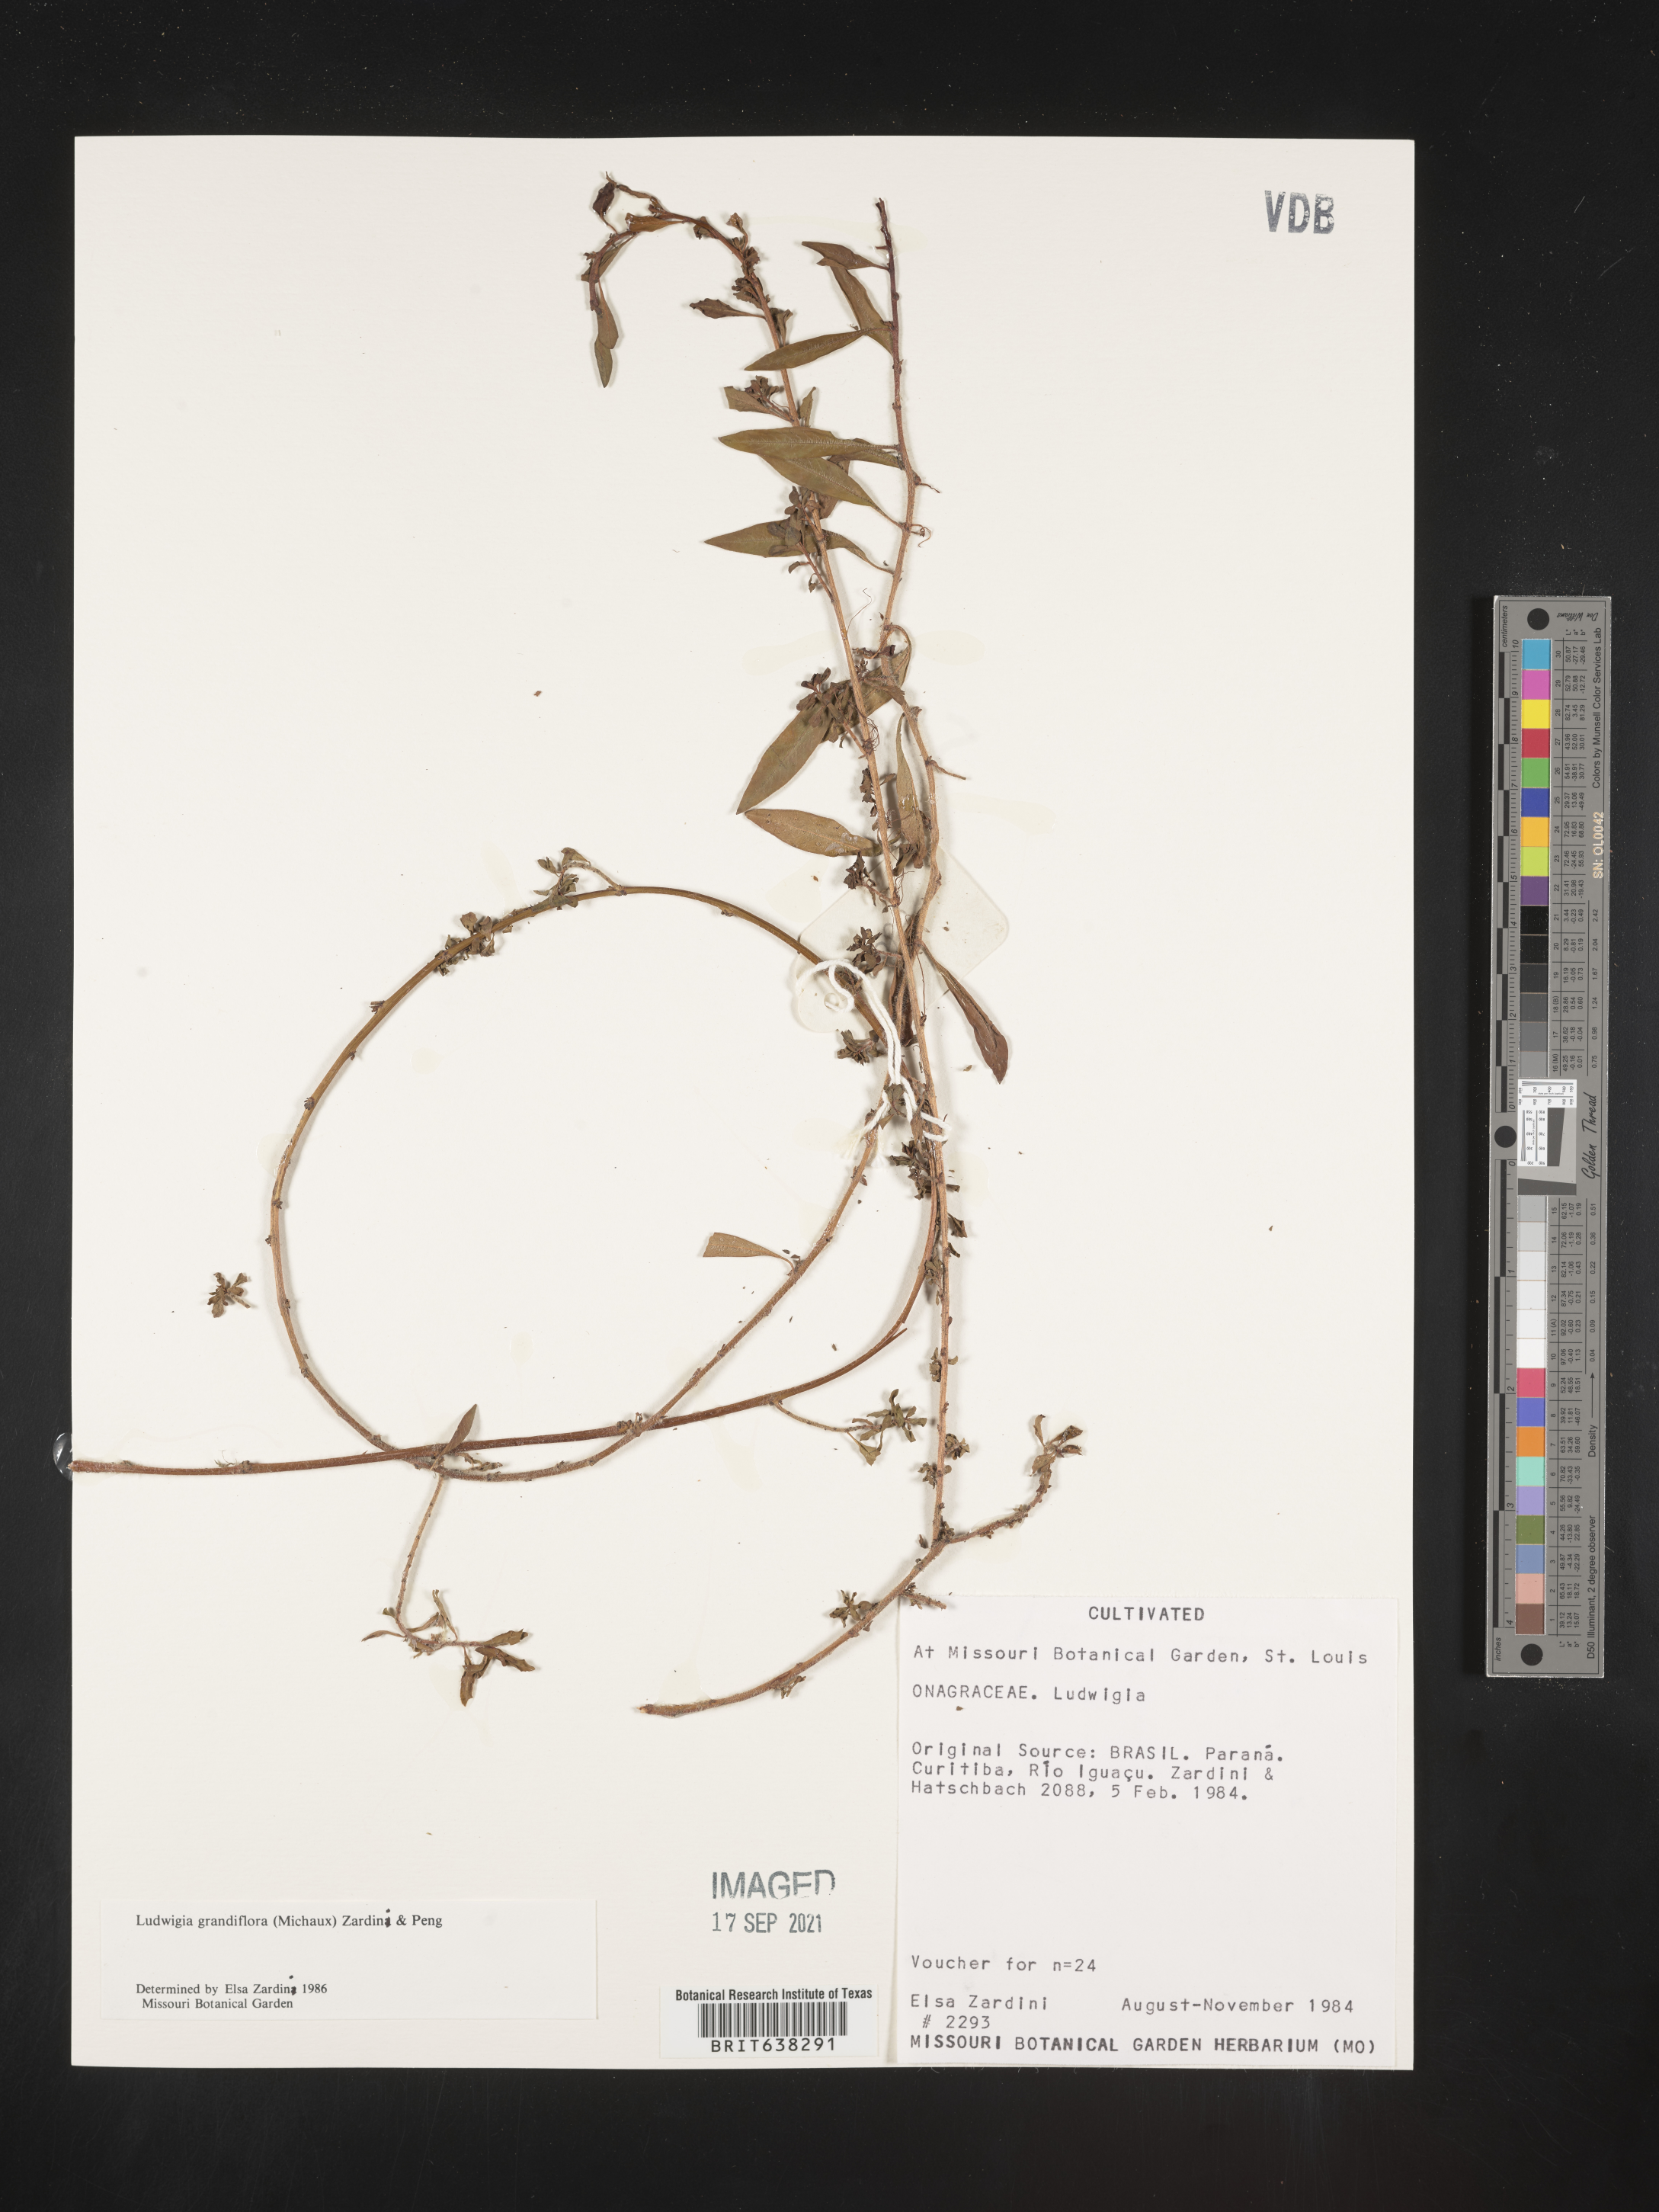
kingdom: Plantae
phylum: Tracheophyta
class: Magnoliopsida
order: Myrtales
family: Onagraceae
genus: Ludwigia
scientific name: Ludwigia
